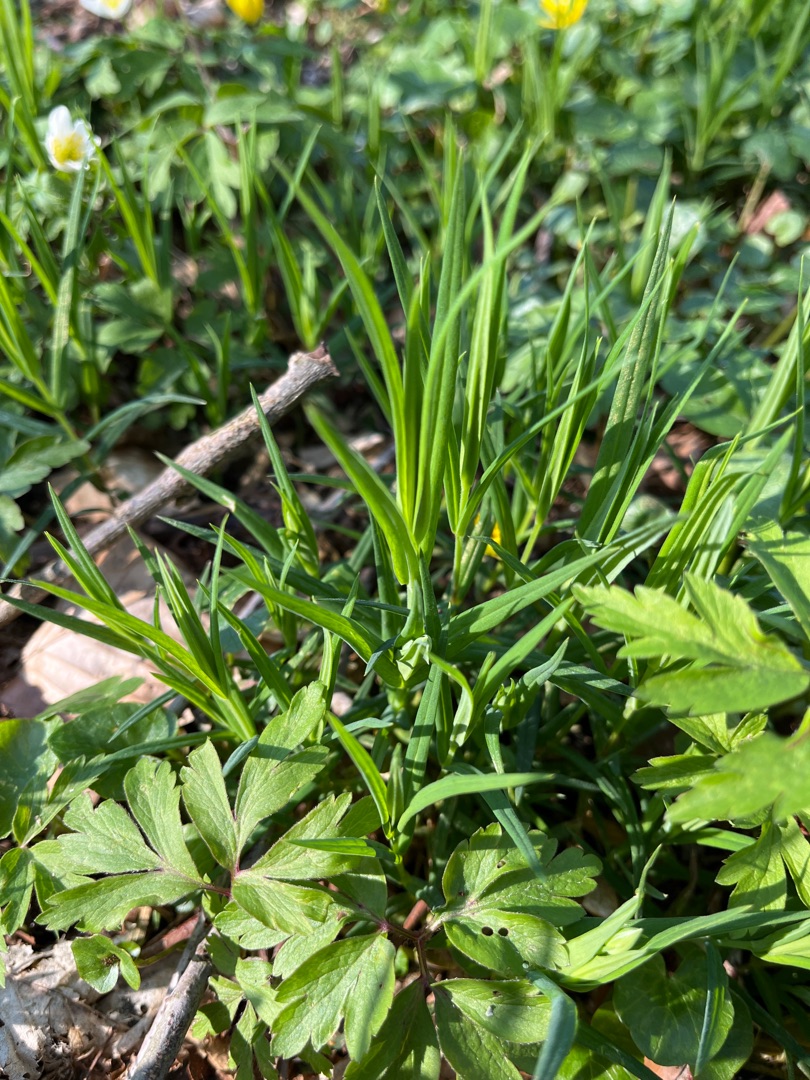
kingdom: Plantae
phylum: Tracheophyta
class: Magnoliopsida
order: Caryophyllales
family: Caryophyllaceae
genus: Rabelera
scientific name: Rabelera holostea
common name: Stor fladstjerne
